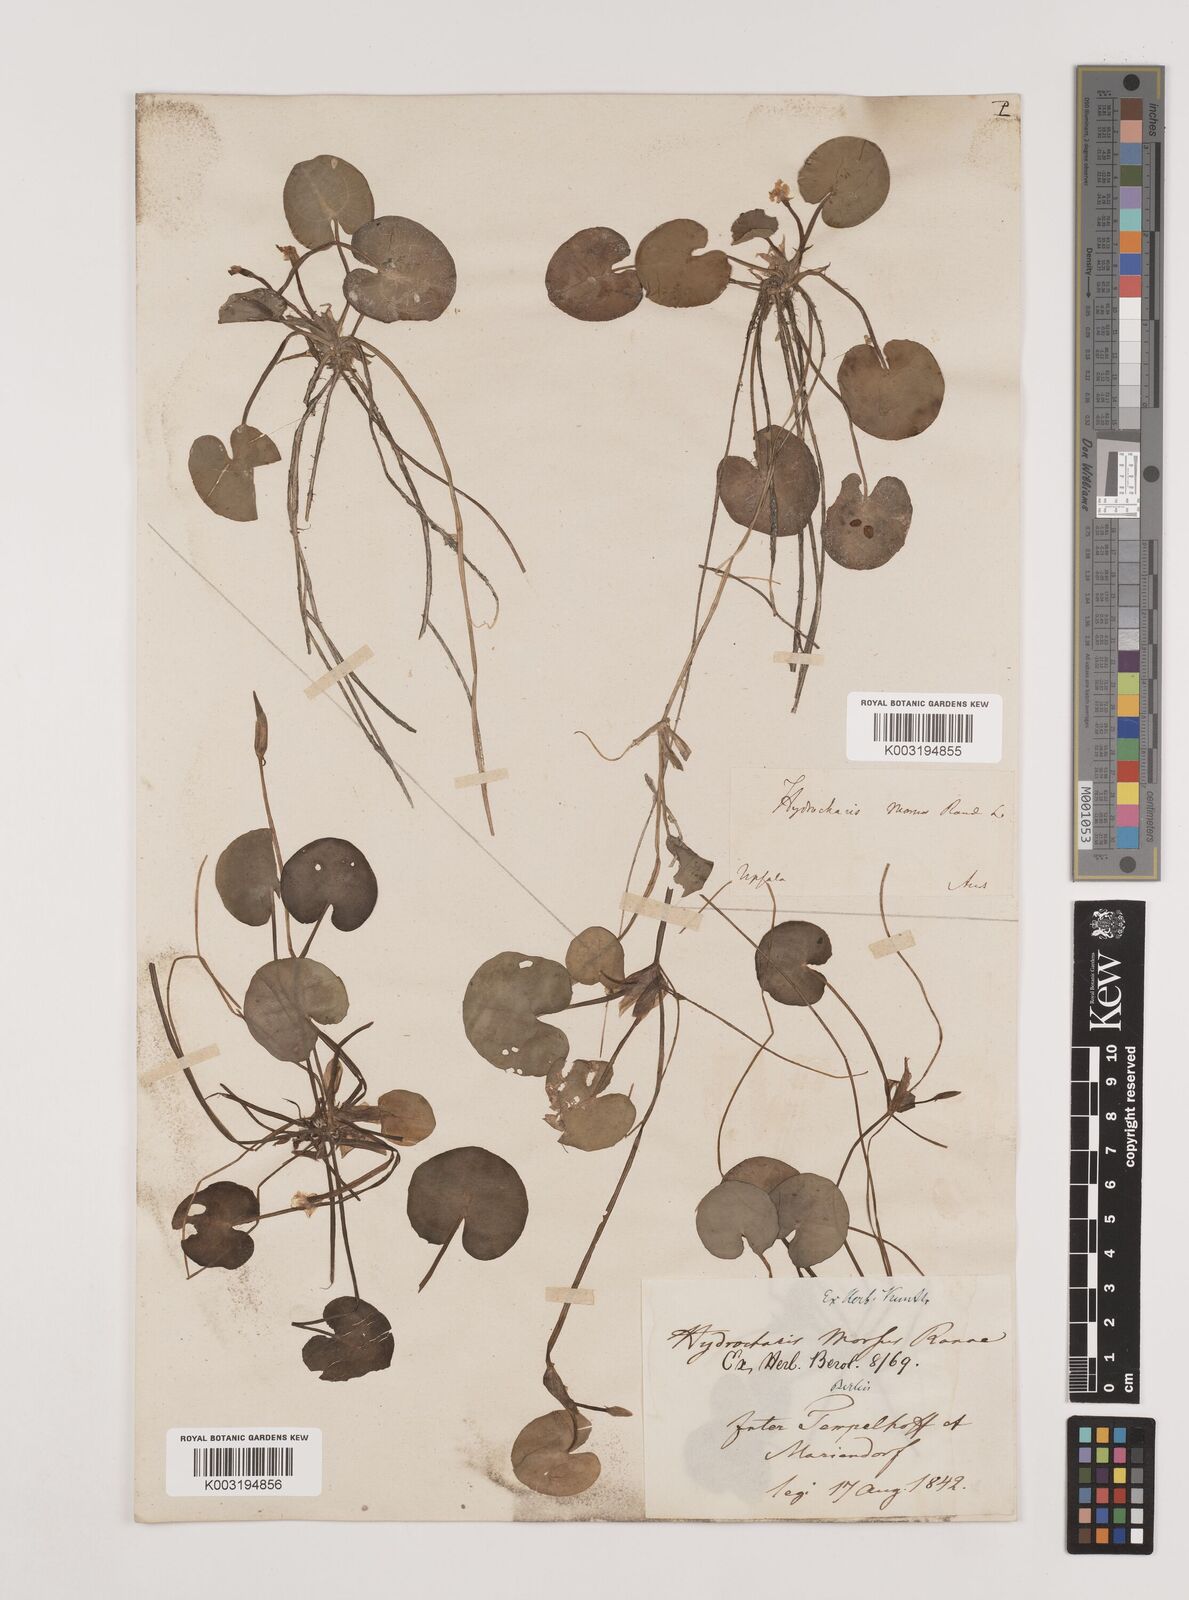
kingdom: Plantae
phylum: Tracheophyta
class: Liliopsida
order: Alismatales
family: Hydrocharitaceae
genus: Hydrocharis
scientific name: Hydrocharis morsus-ranae
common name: Frogbit
